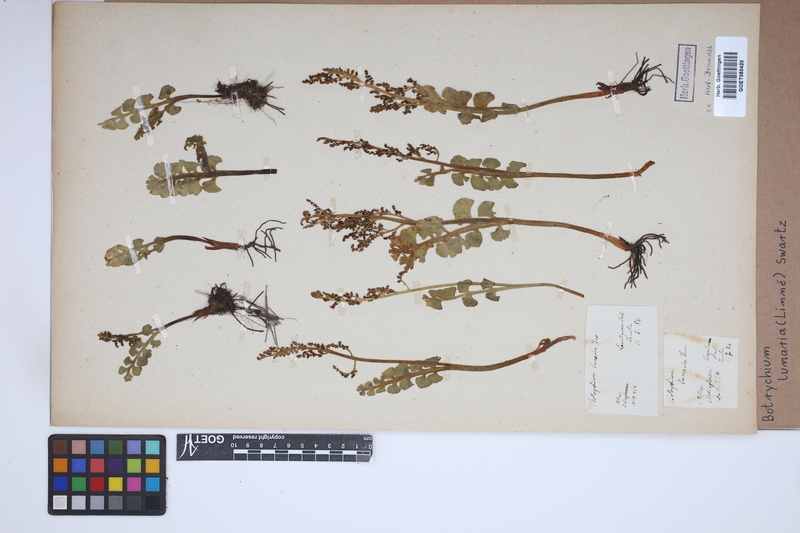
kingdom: Plantae
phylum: Tracheophyta
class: Polypodiopsida
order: Ophioglossales
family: Ophioglossaceae
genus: Botrychium
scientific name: Botrychium lunaria
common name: Moonwort
